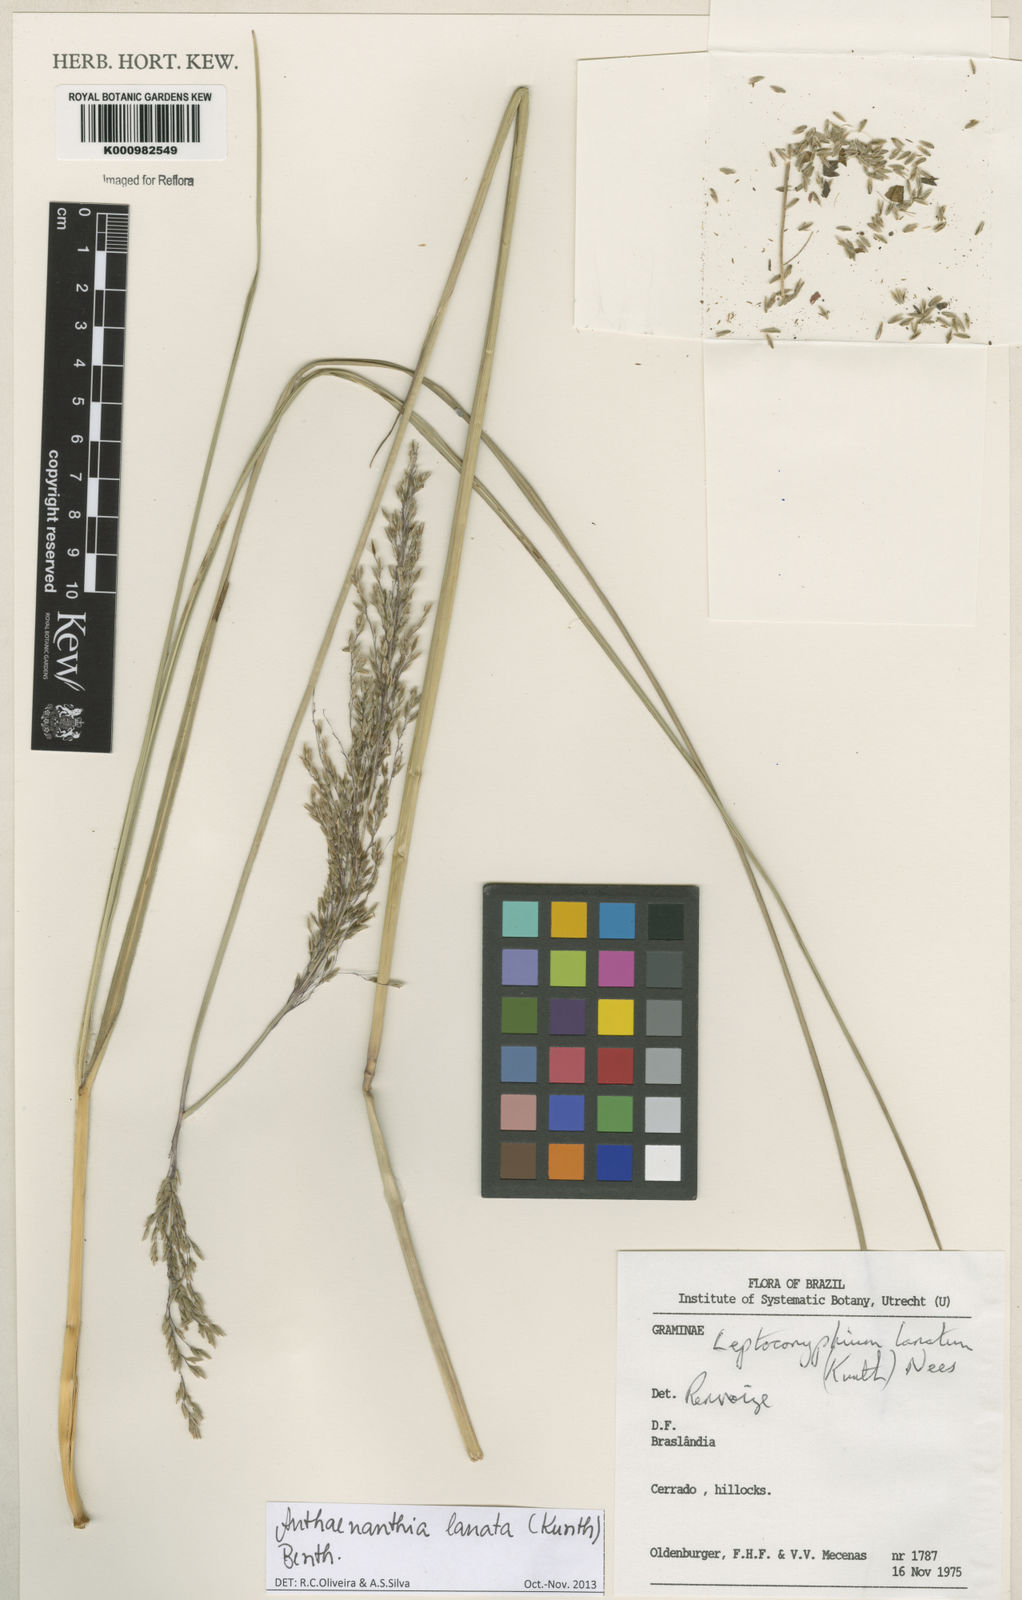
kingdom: Plantae
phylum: Tracheophyta
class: Liliopsida
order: Poales
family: Poaceae
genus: Anthenantia
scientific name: Anthenantia lanata
